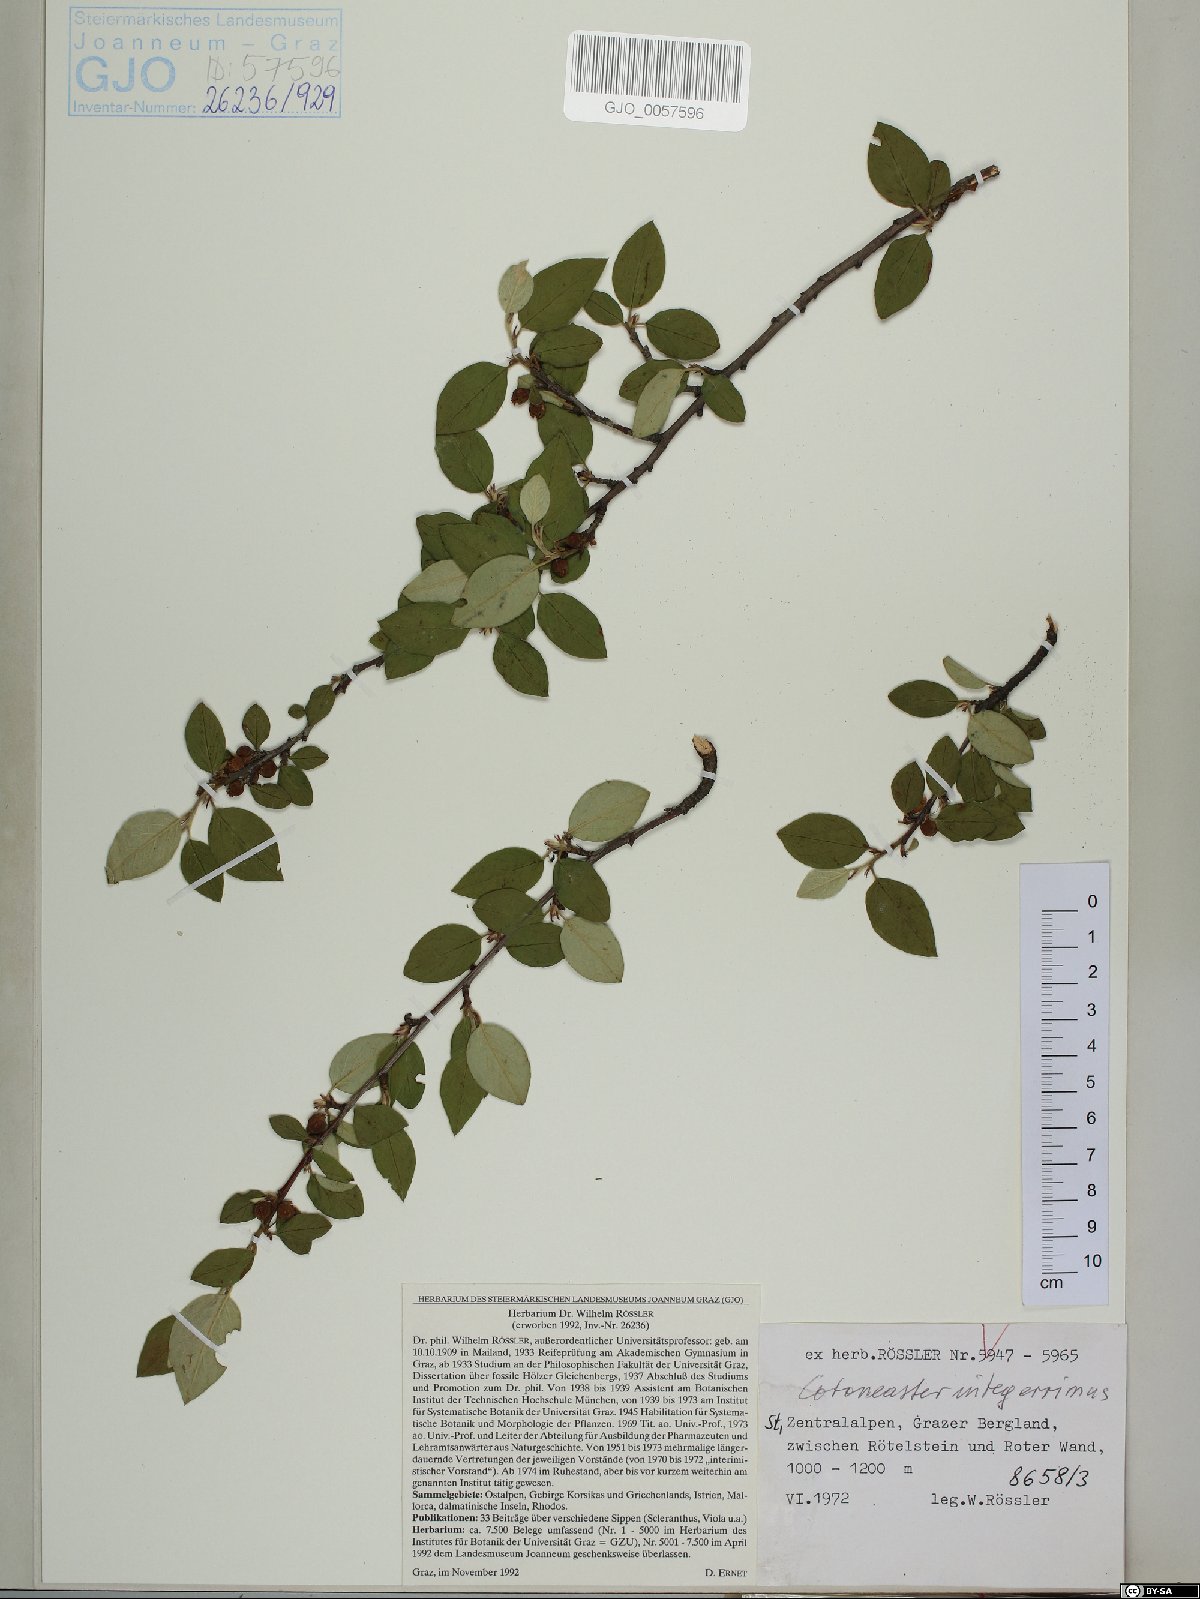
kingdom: Plantae
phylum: Tracheophyta
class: Magnoliopsida
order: Rosales
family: Rosaceae
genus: Cotoneaster
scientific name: Cotoneaster integerrimus
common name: Wild cotoneaster
